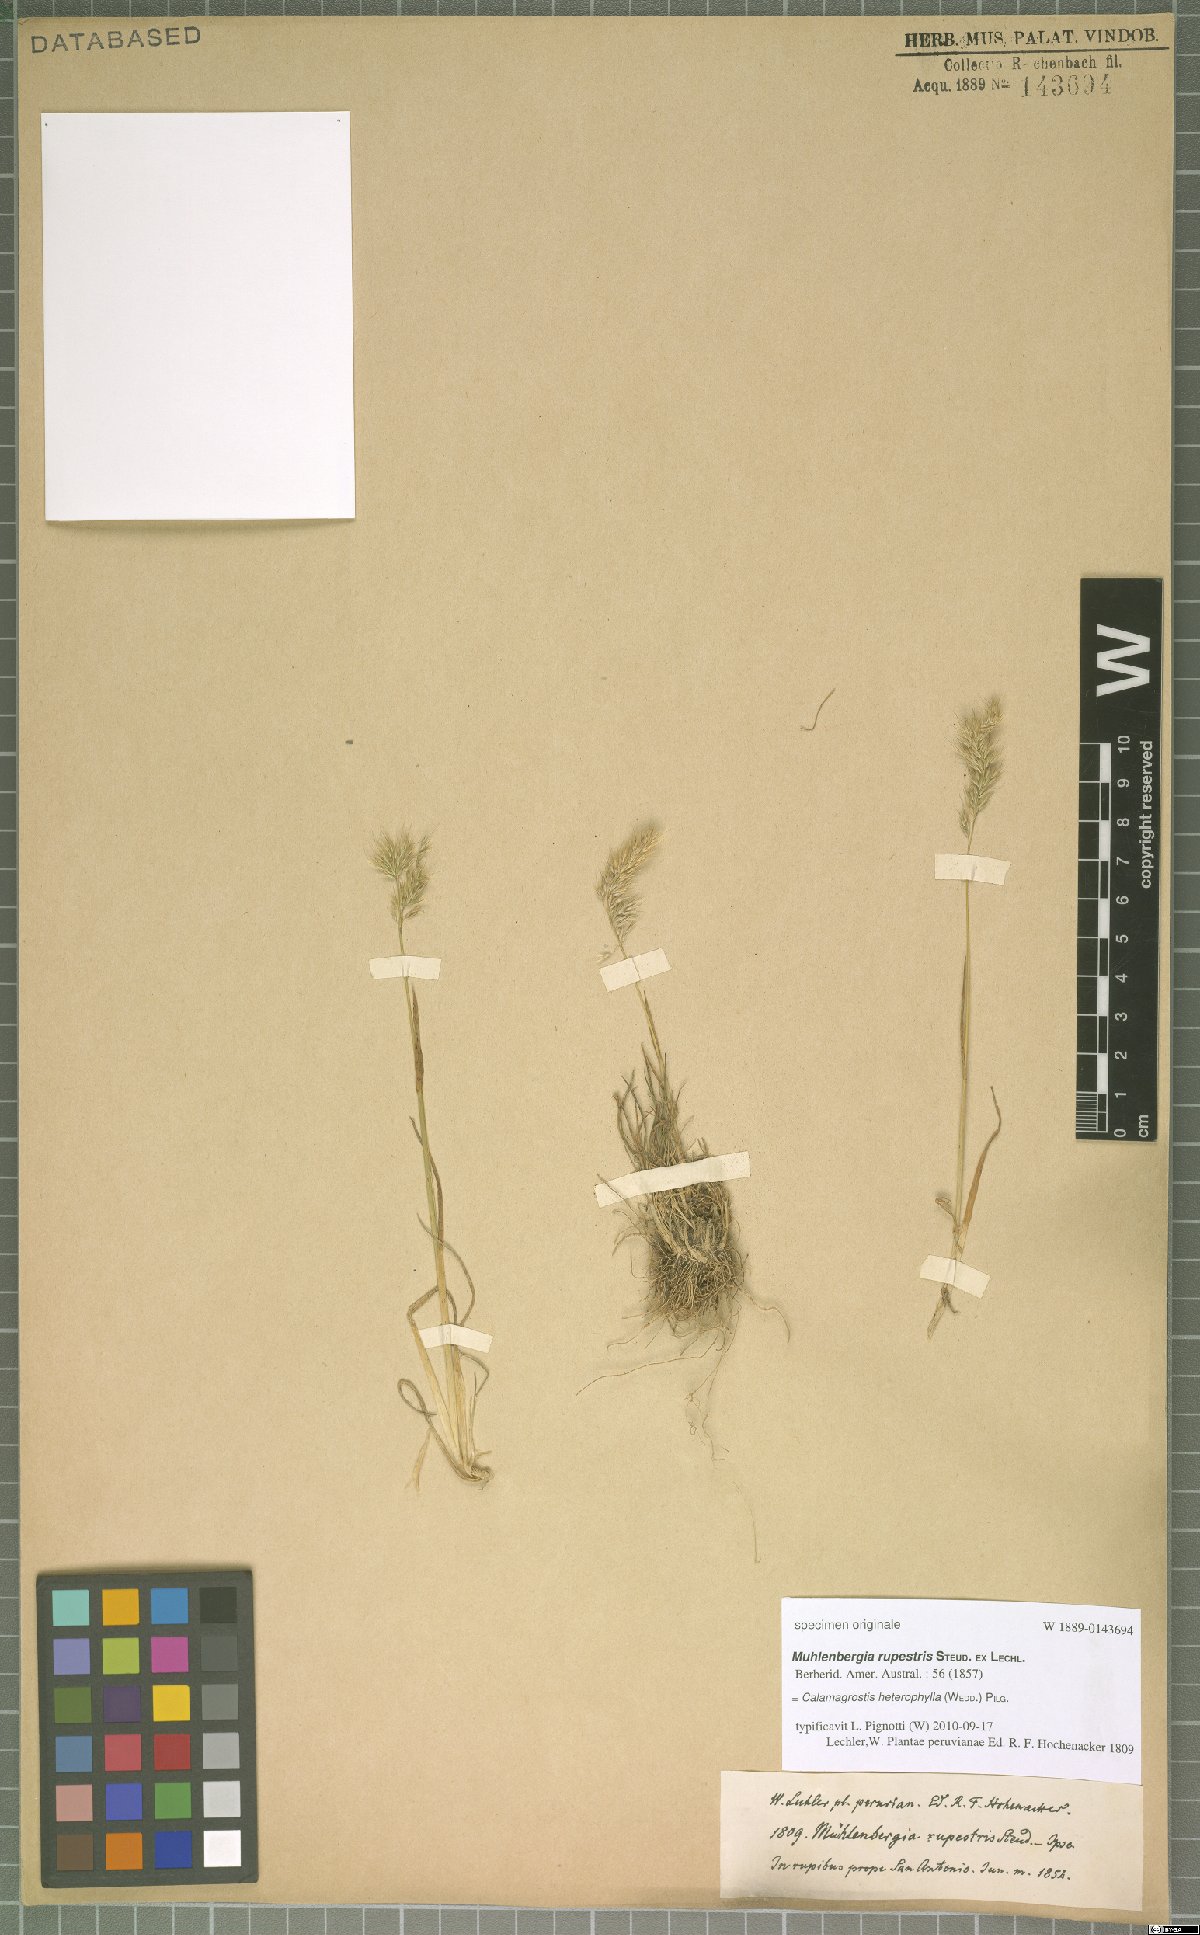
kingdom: Plantae
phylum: Tracheophyta
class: Liliopsida
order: Poales
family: Poaceae
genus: Cinnagrostis
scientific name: Cinnagrostis heterophylla
